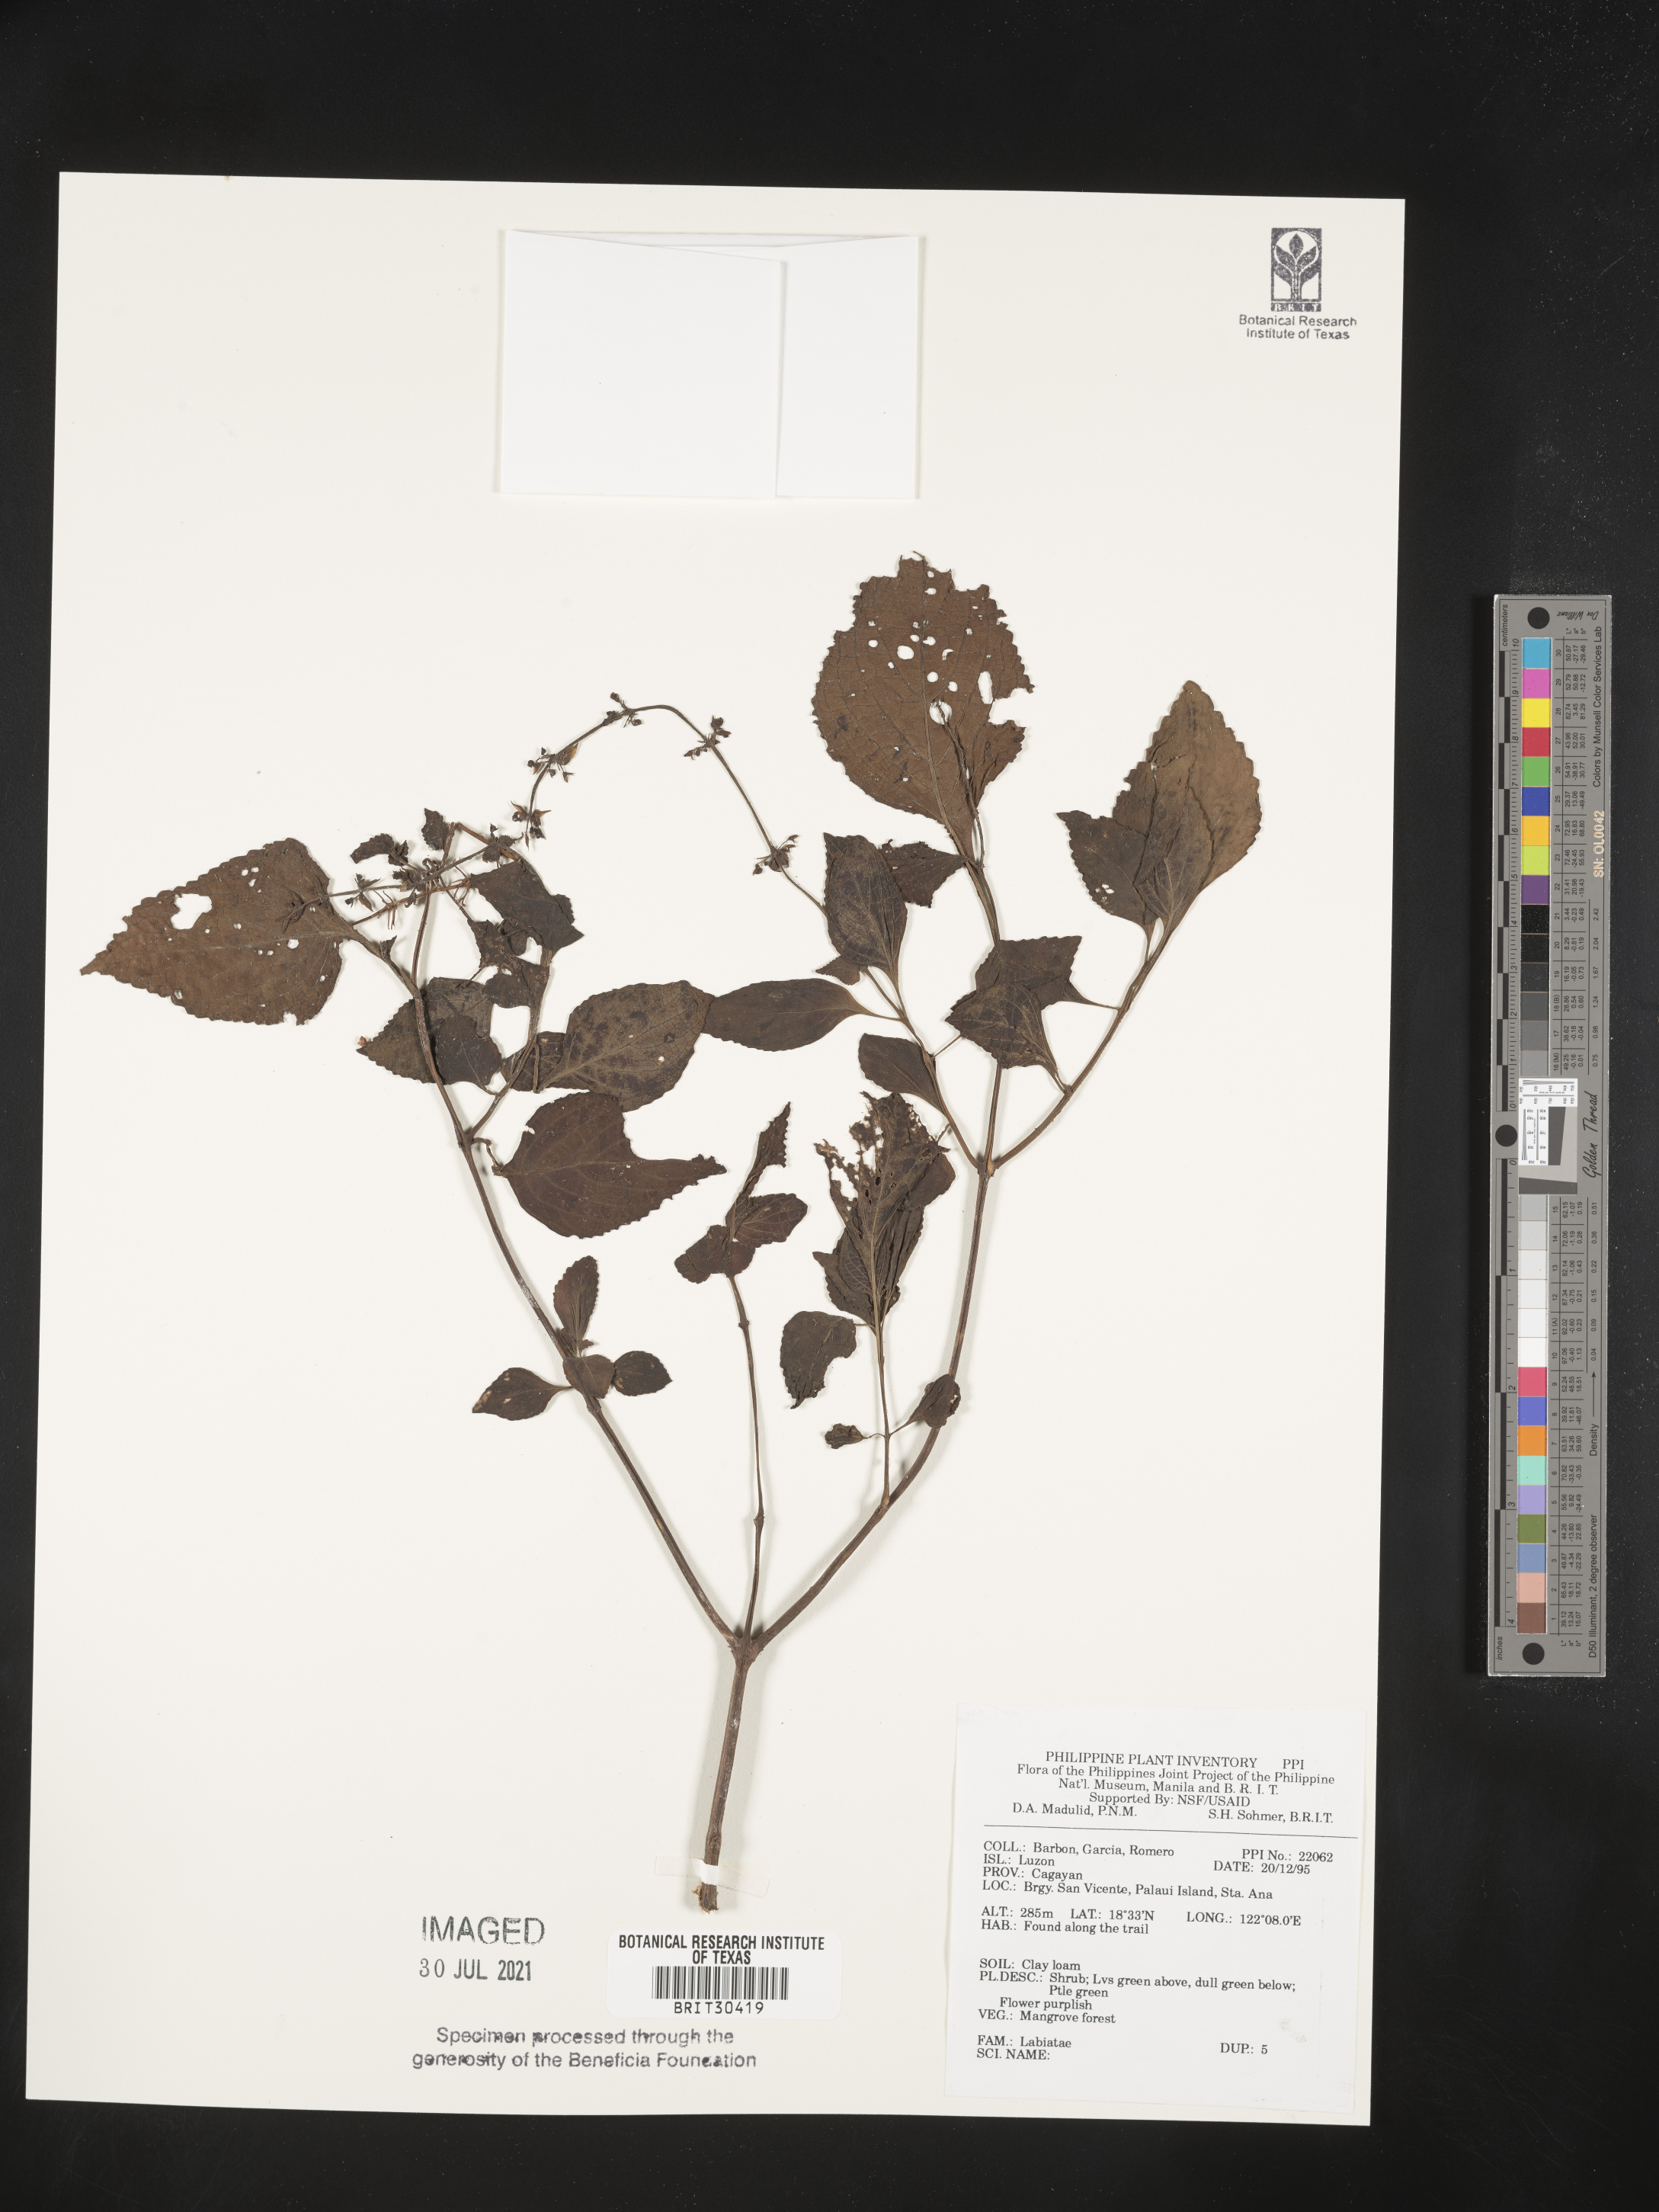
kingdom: Plantae
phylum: Tracheophyta
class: Magnoliopsida
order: Lamiales
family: Lamiaceae
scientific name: Lamiaceae
